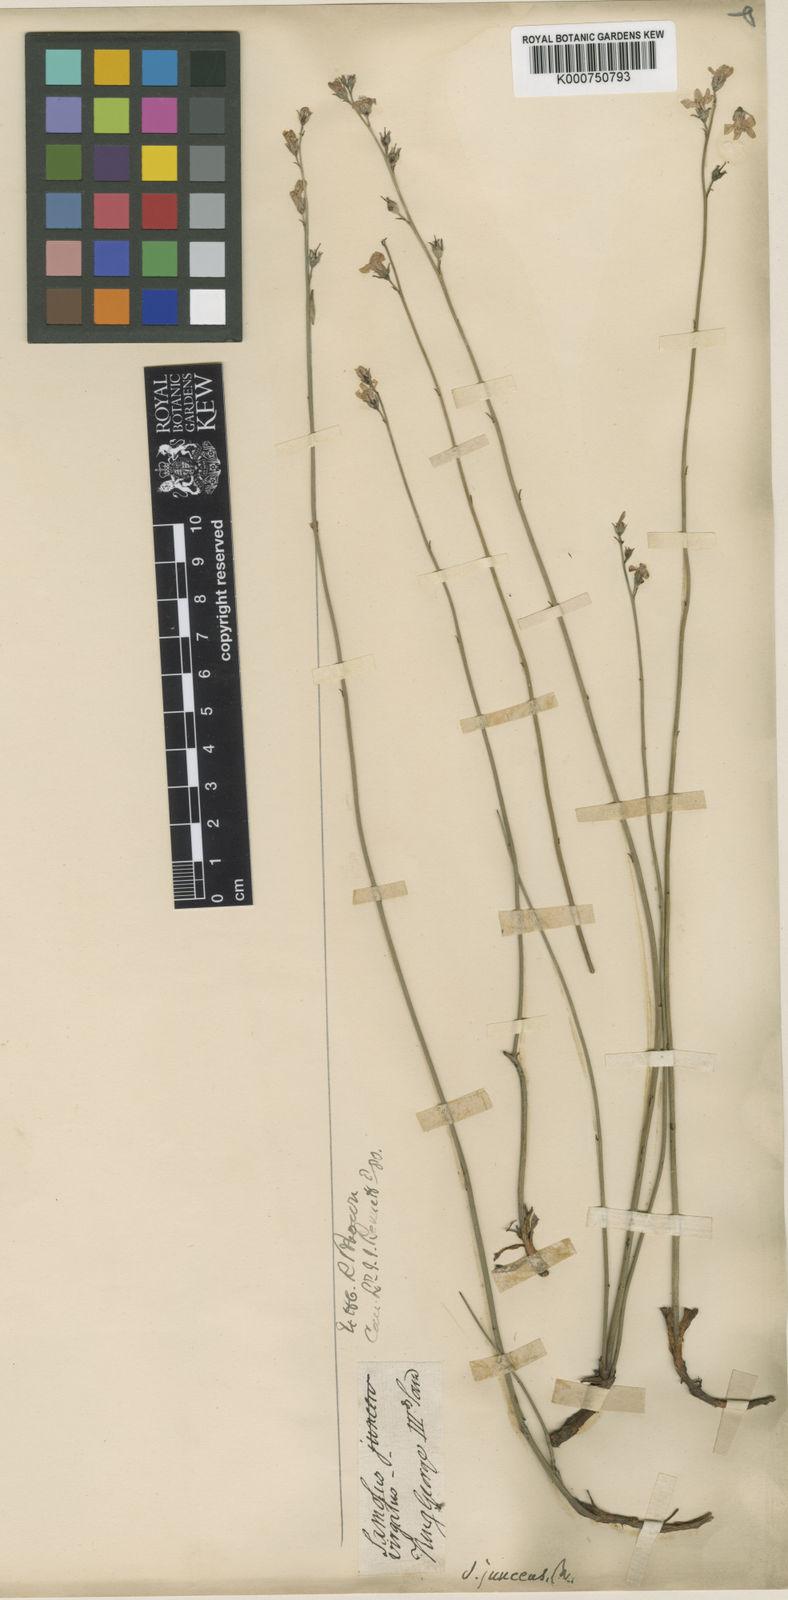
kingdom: Plantae
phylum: Tracheophyta
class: Magnoliopsida
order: Ericales
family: Primulaceae
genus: Samolus
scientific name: Samolus junceus
